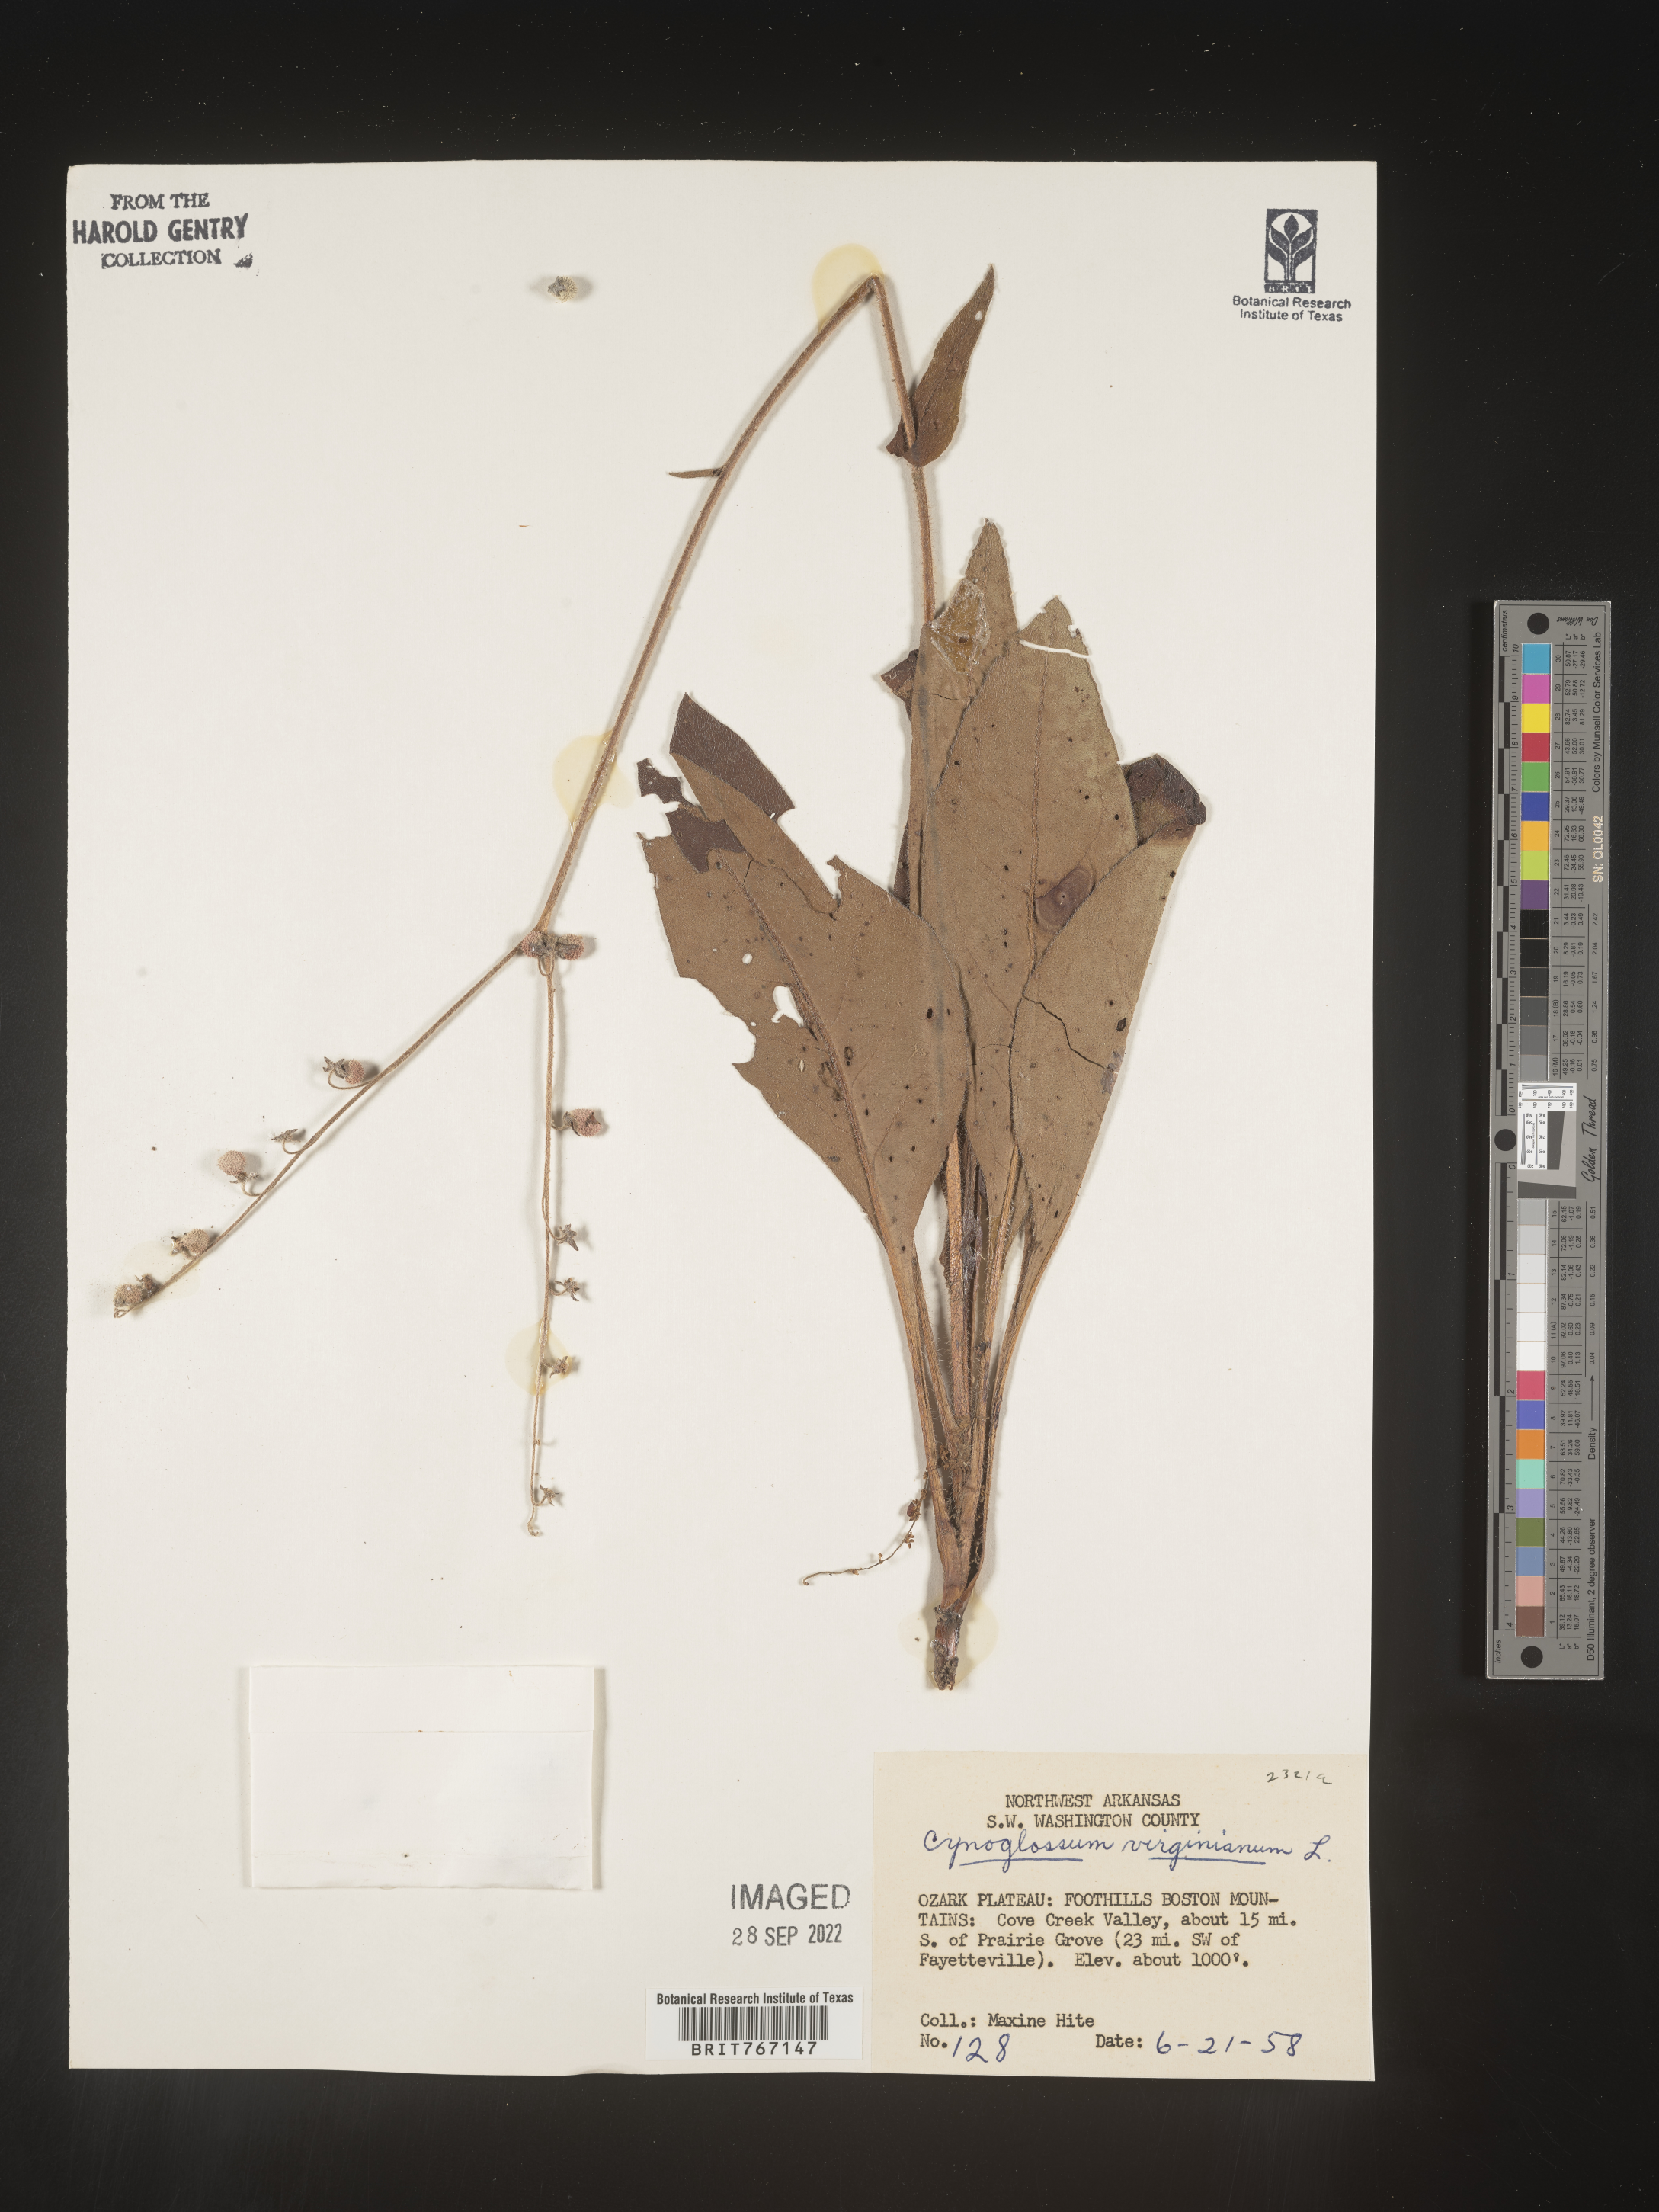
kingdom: Plantae
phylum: Tracheophyta
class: Magnoliopsida
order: Boraginales
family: Boraginaceae
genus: Andersonglossum
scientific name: Andersonglossum virginianum
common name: Wild comfrey
